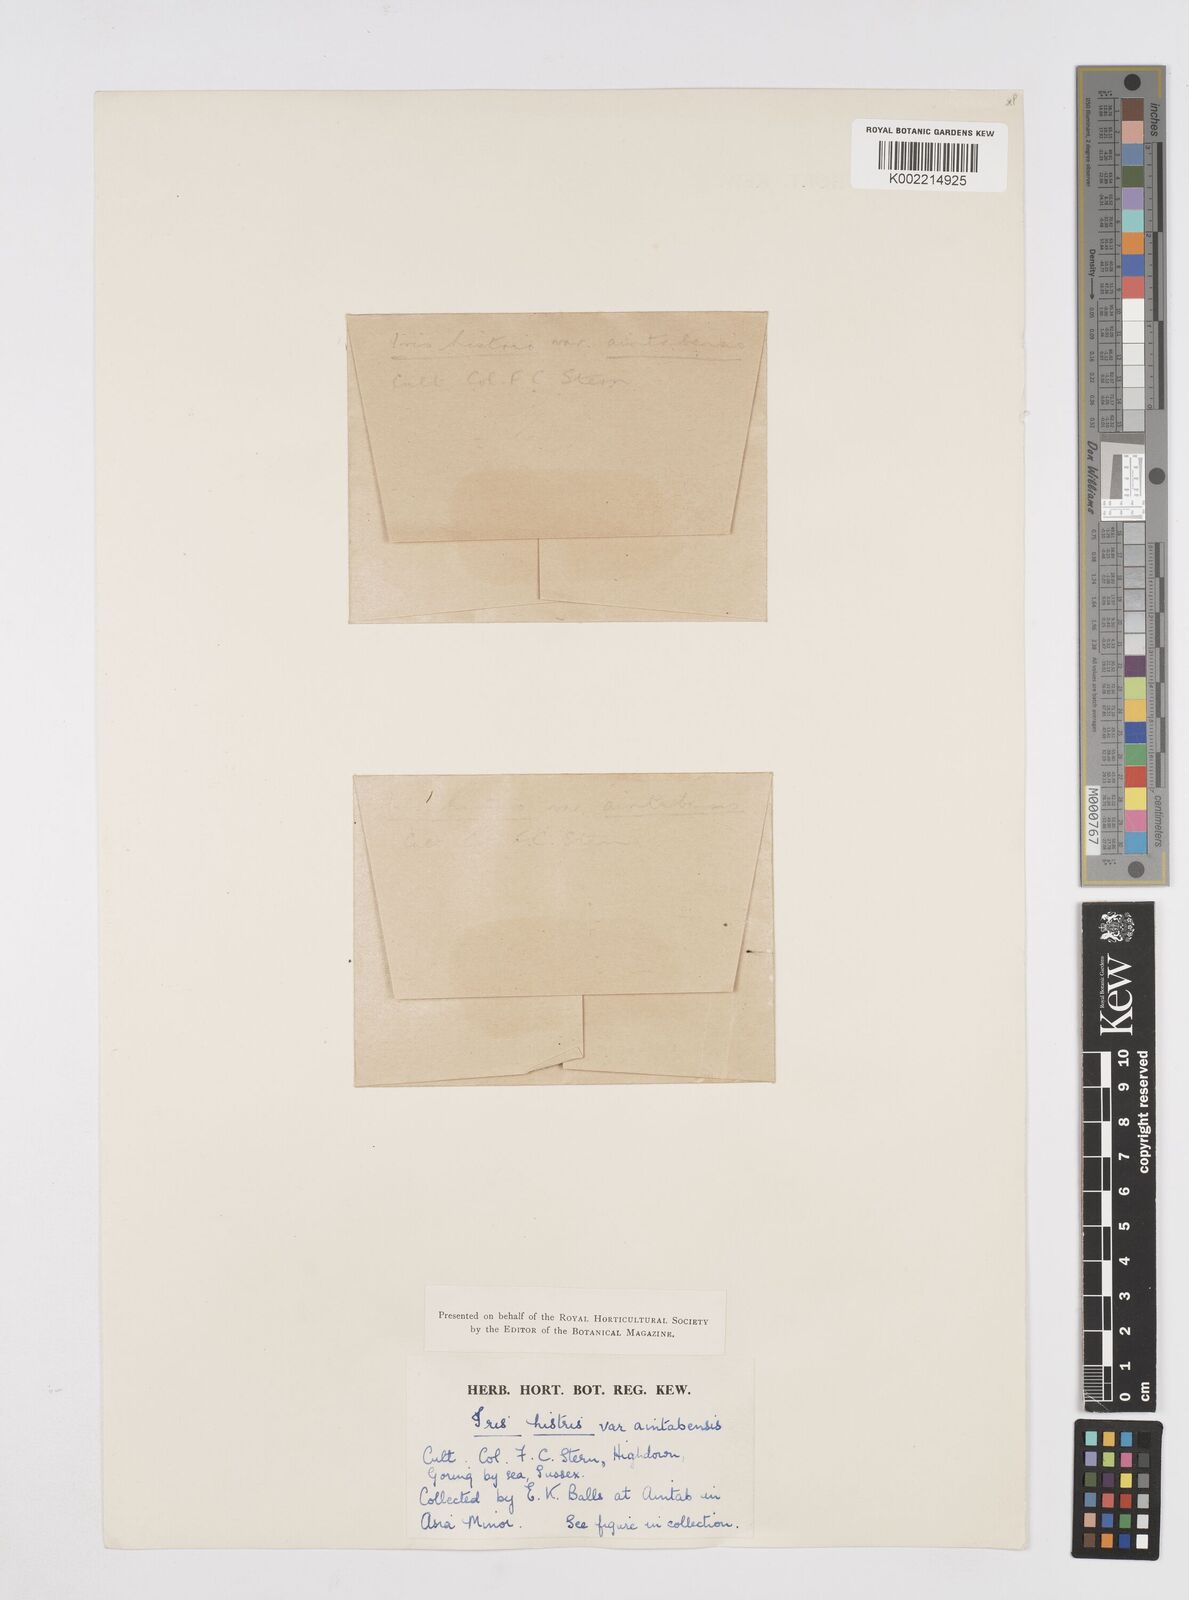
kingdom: Plantae
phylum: Tracheophyta
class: Liliopsida
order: Asparagales
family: Iridaceae
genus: Iris
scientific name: Iris histrio
